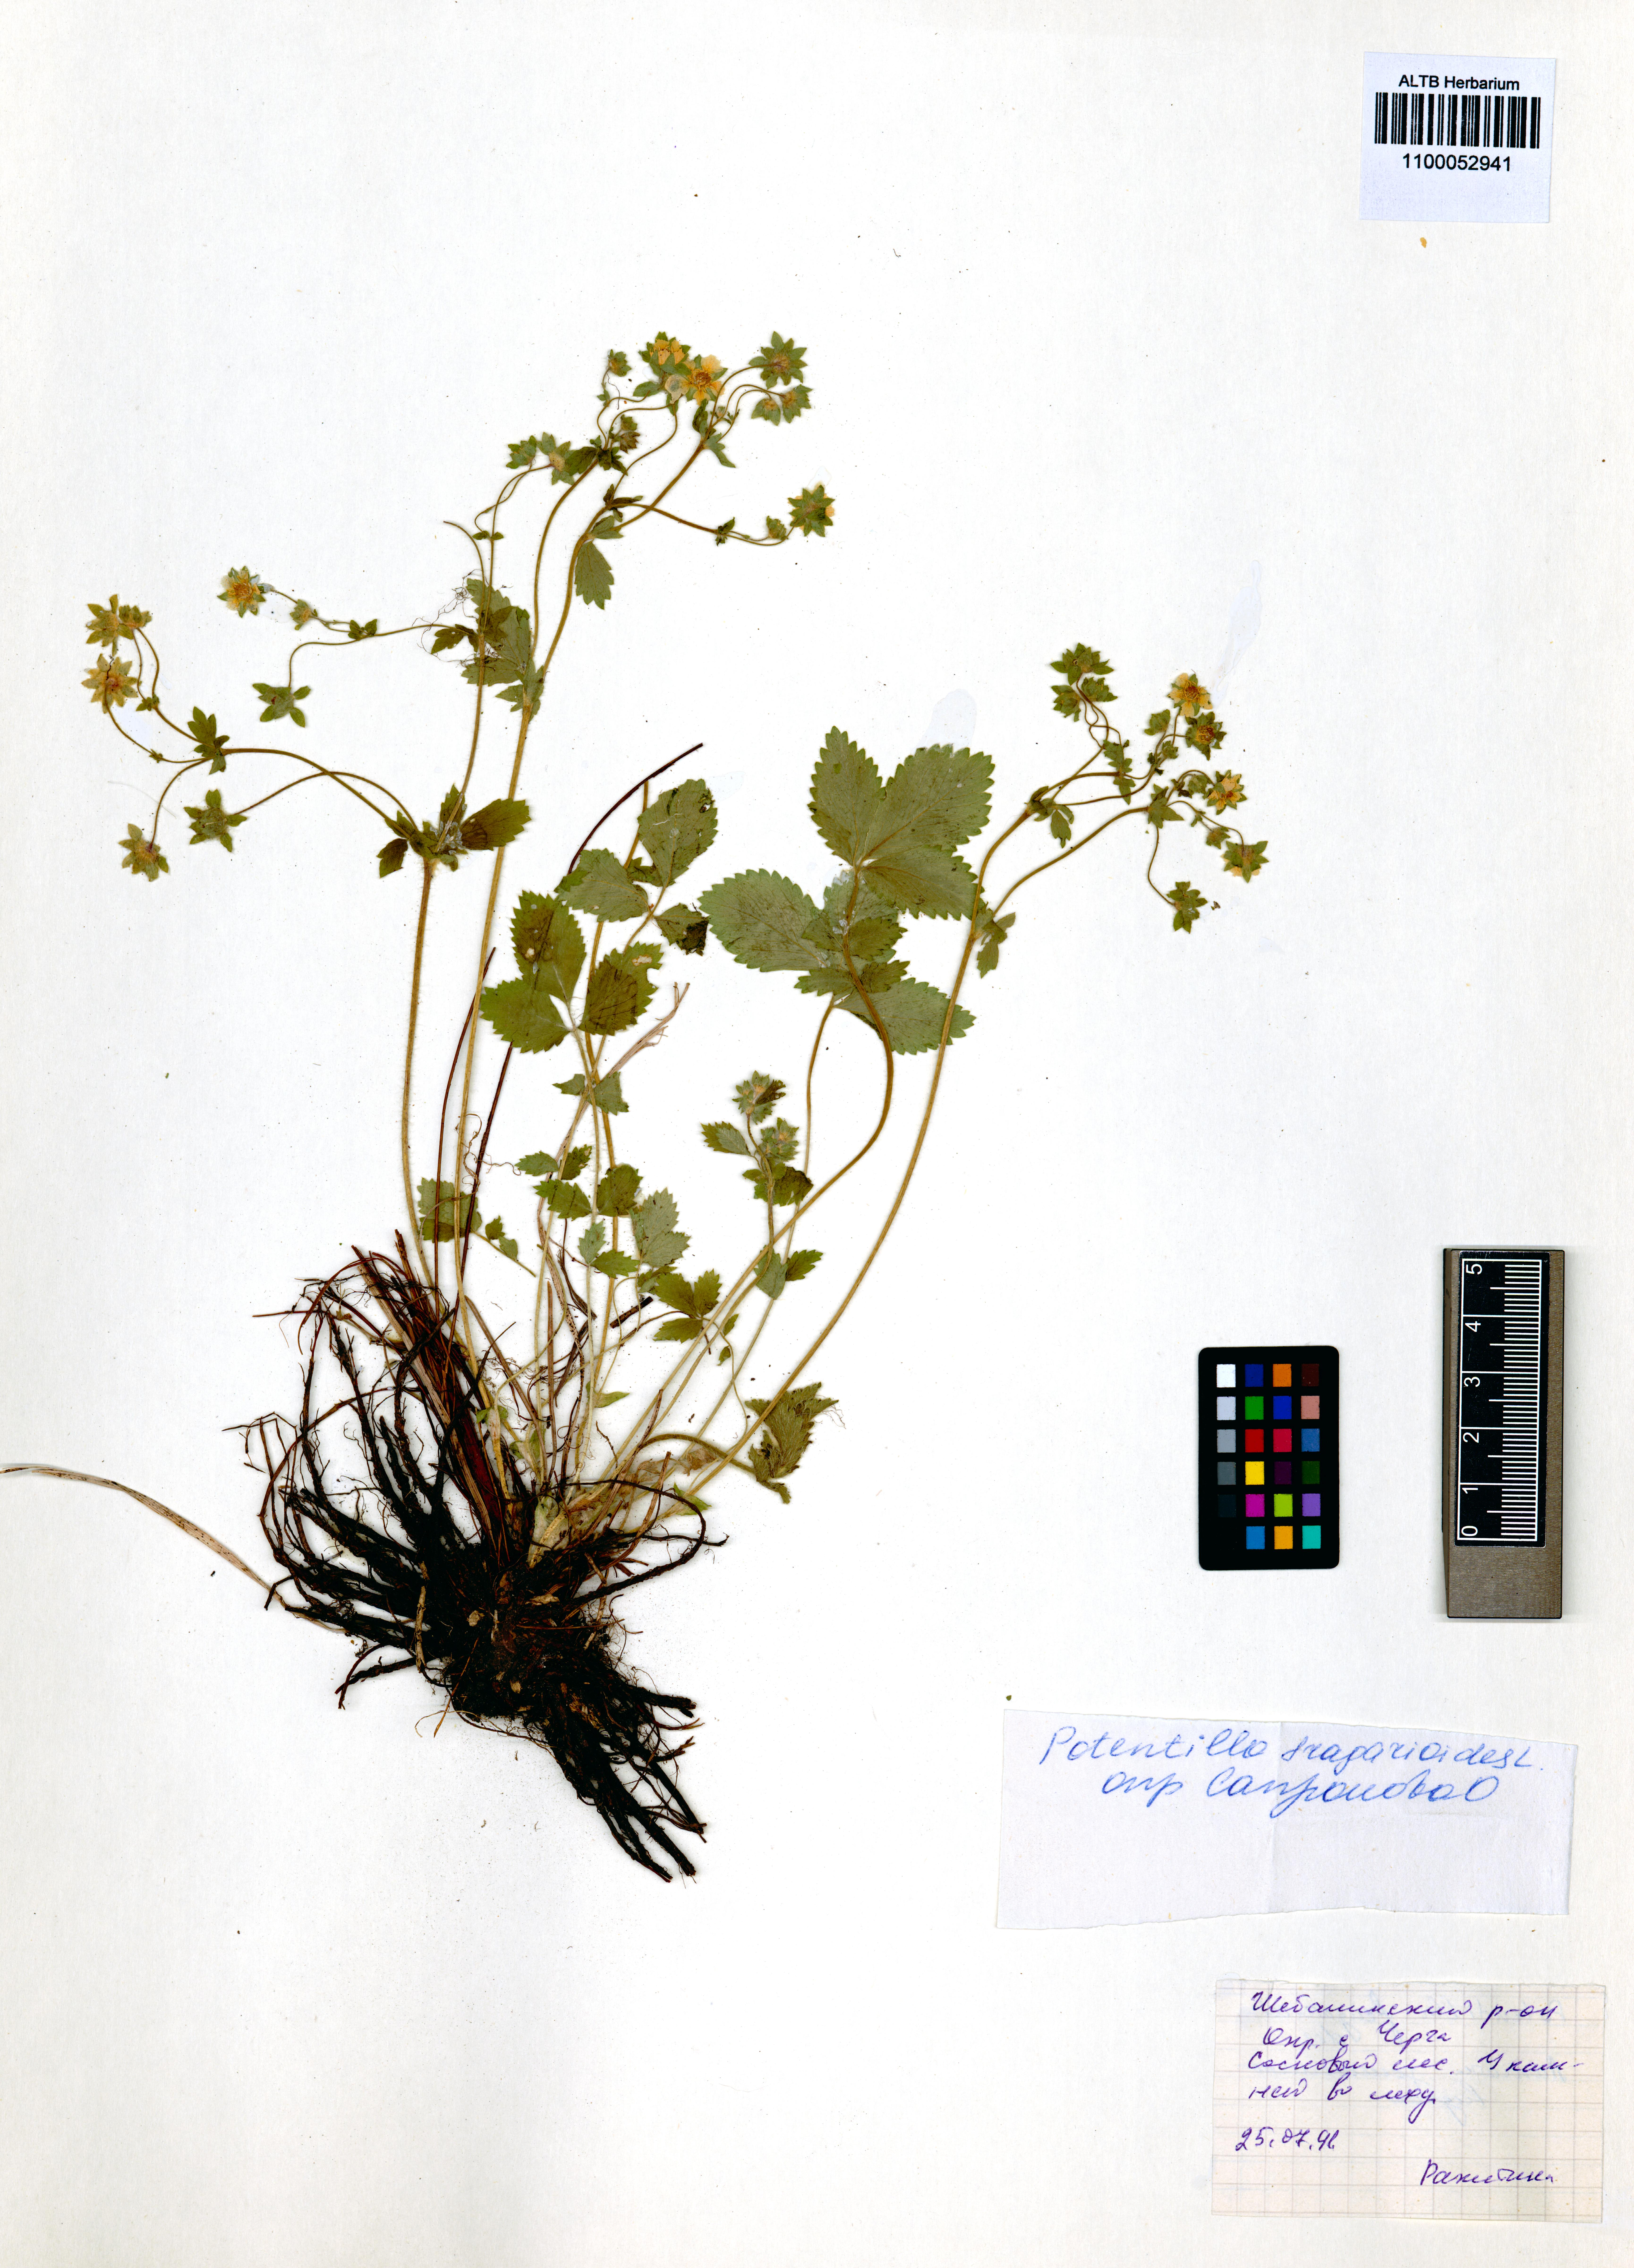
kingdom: Plantae
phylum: Tracheophyta
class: Magnoliopsida
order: Rosales
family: Rosaceae
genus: Potentilla
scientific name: Potentilla fragarioides
